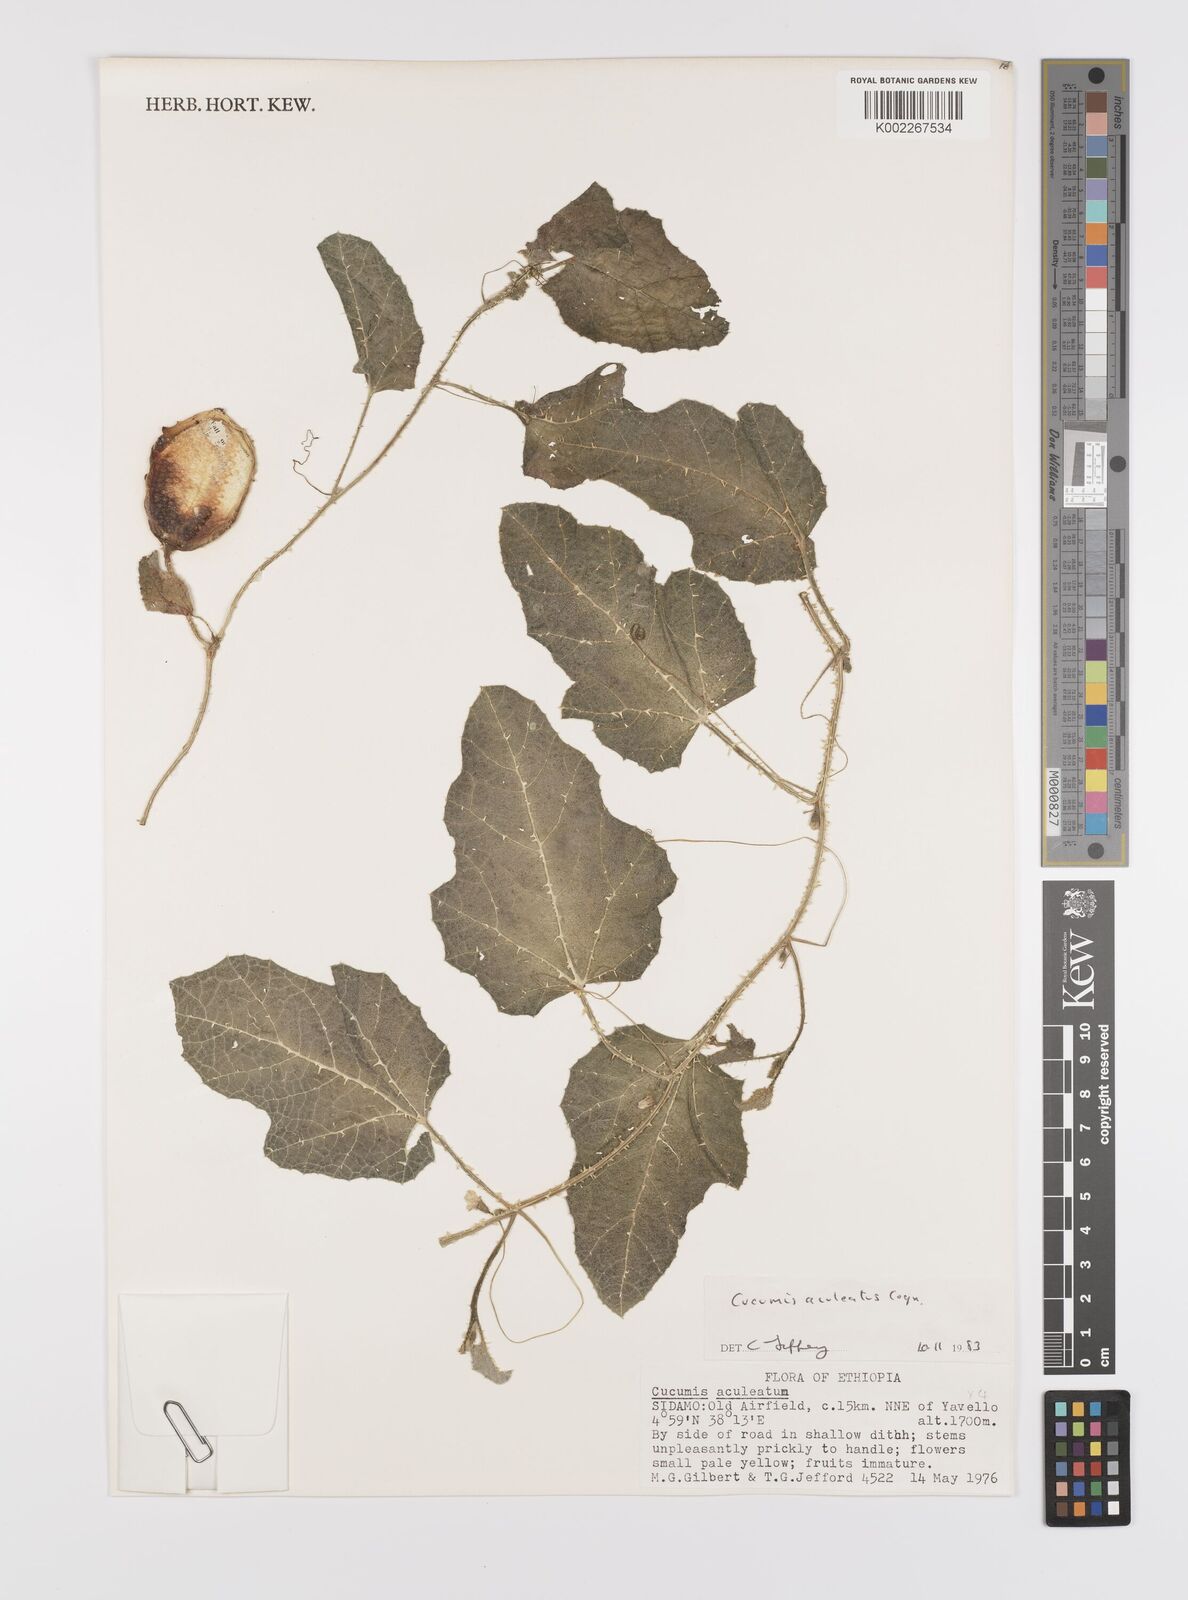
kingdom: Plantae
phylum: Tracheophyta
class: Magnoliopsida
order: Cucurbitales
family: Cucurbitaceae
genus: Cucumis
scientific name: Cucumis aculeatus
